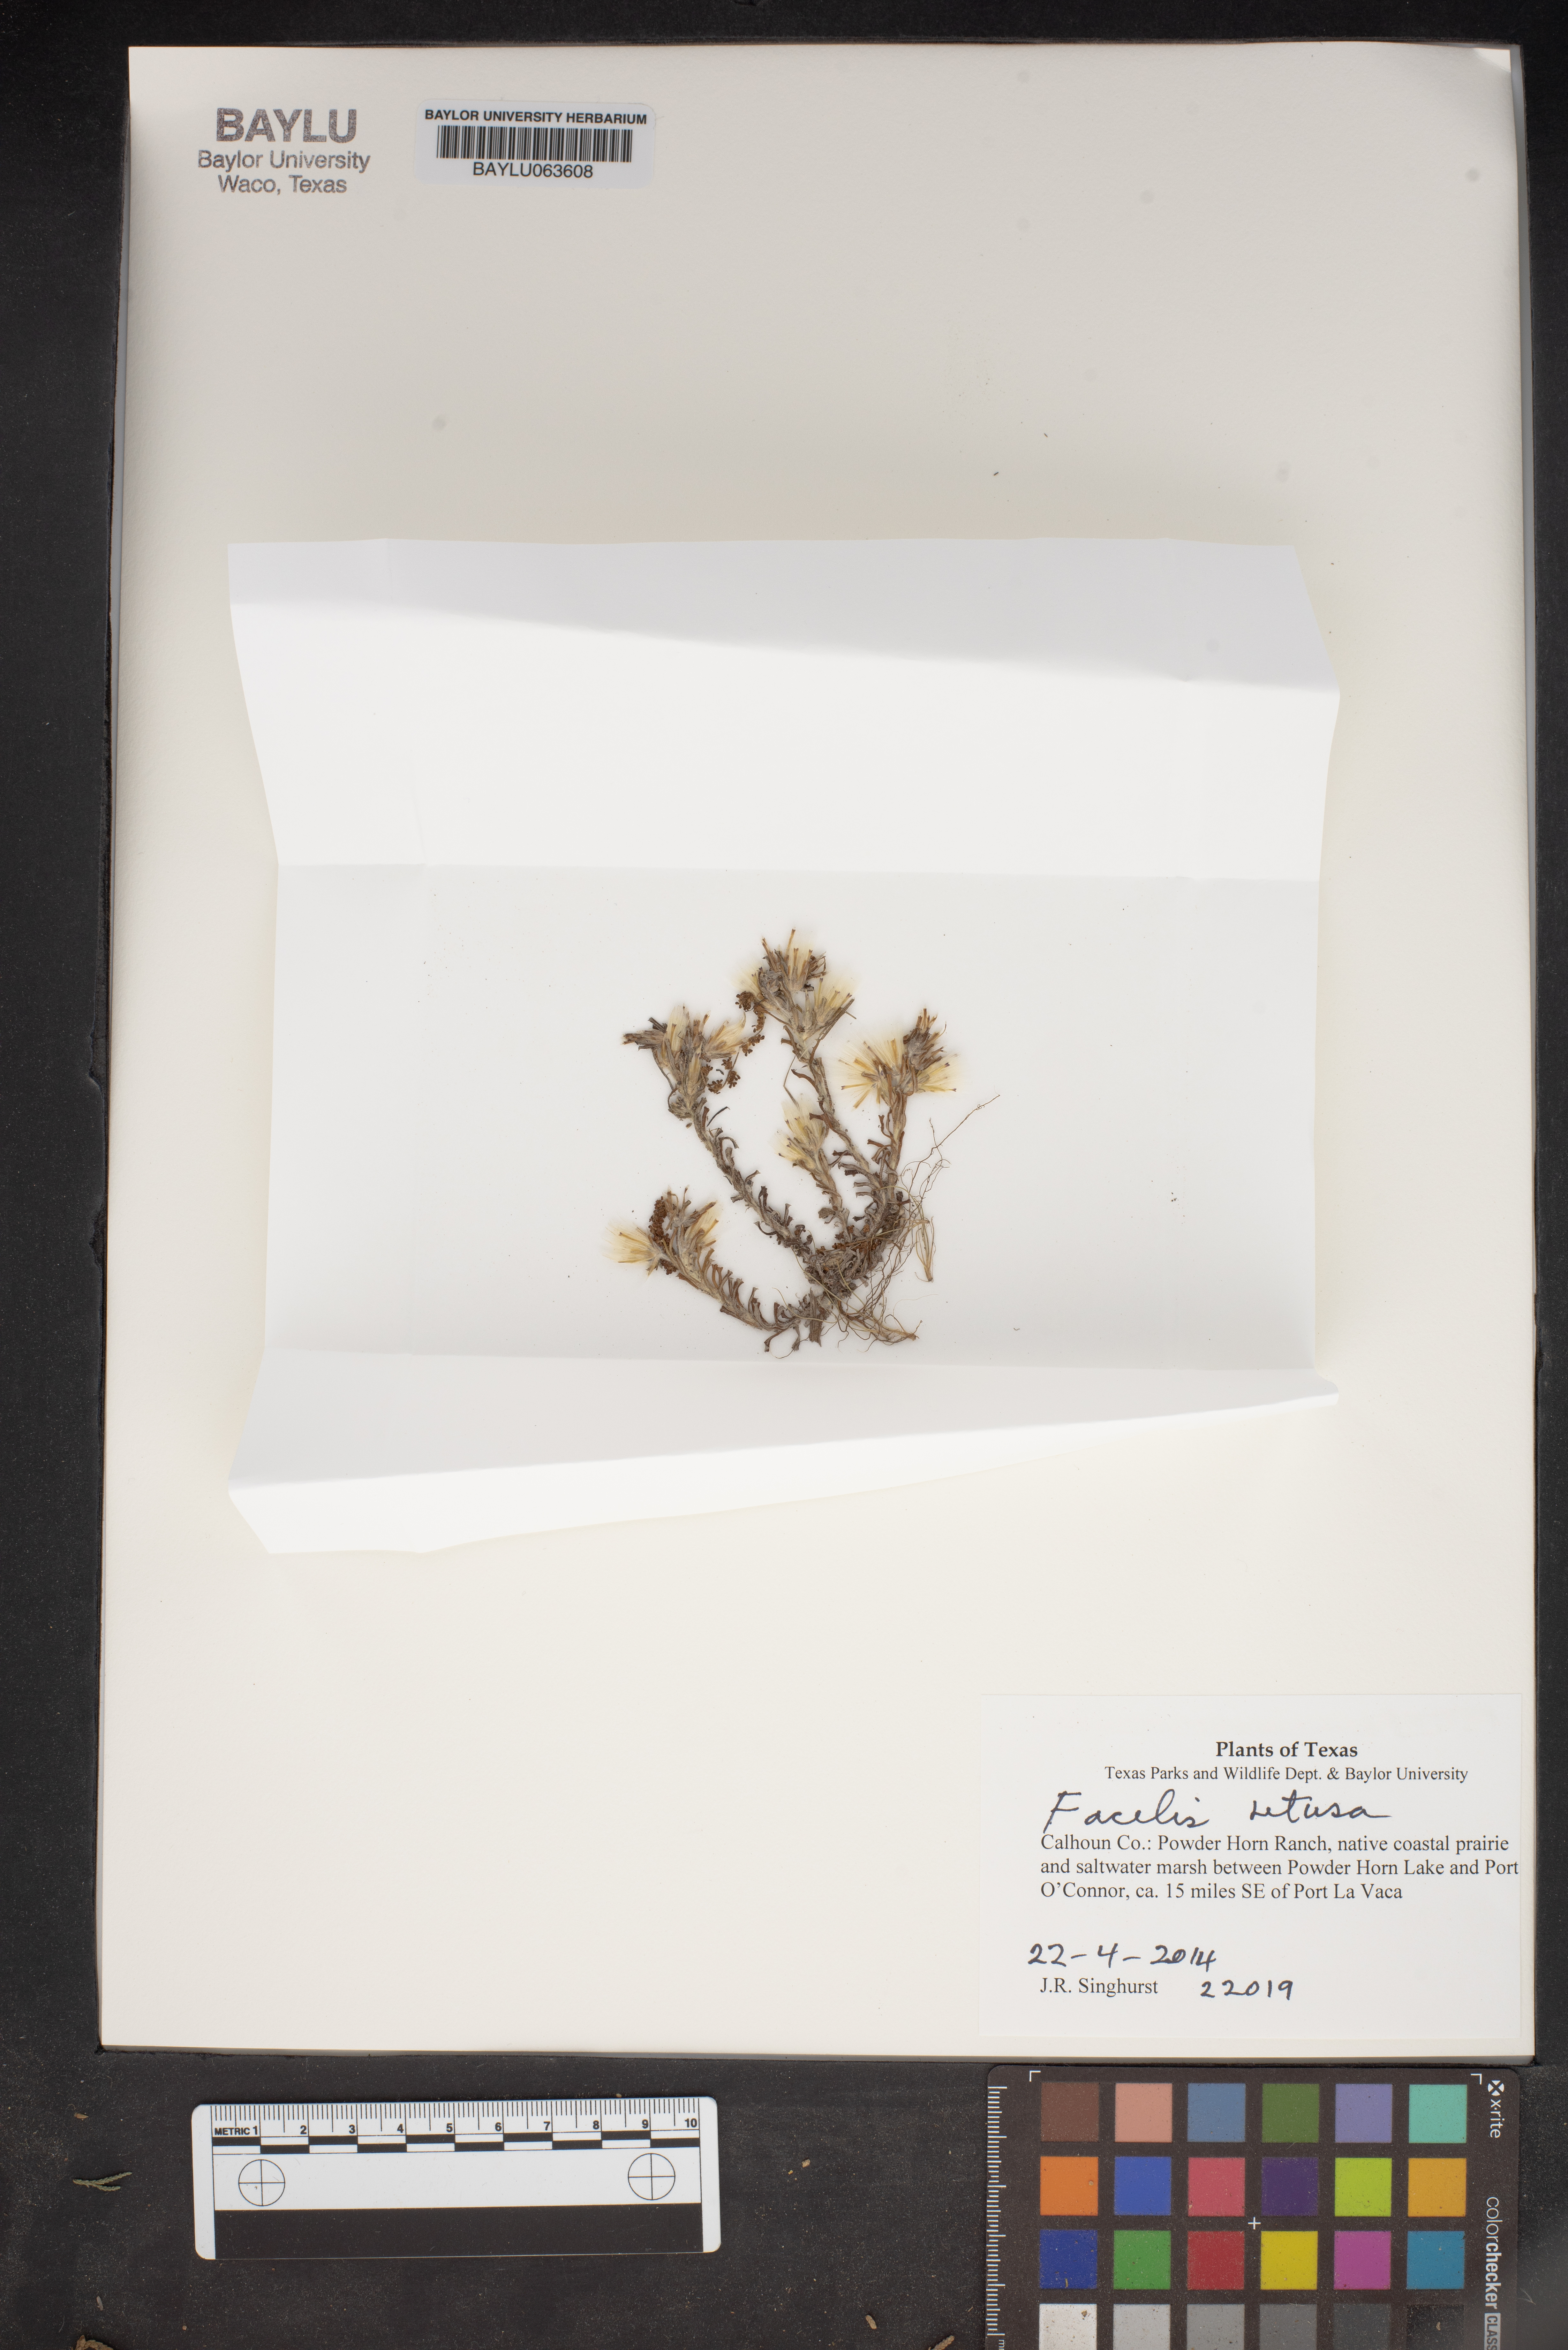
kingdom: Plantae
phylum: Tracheophyta
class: Magnoliopsida
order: Asterales
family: Asteraceae
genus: Facelis
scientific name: Facelis retusa
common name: Annual trampweed
